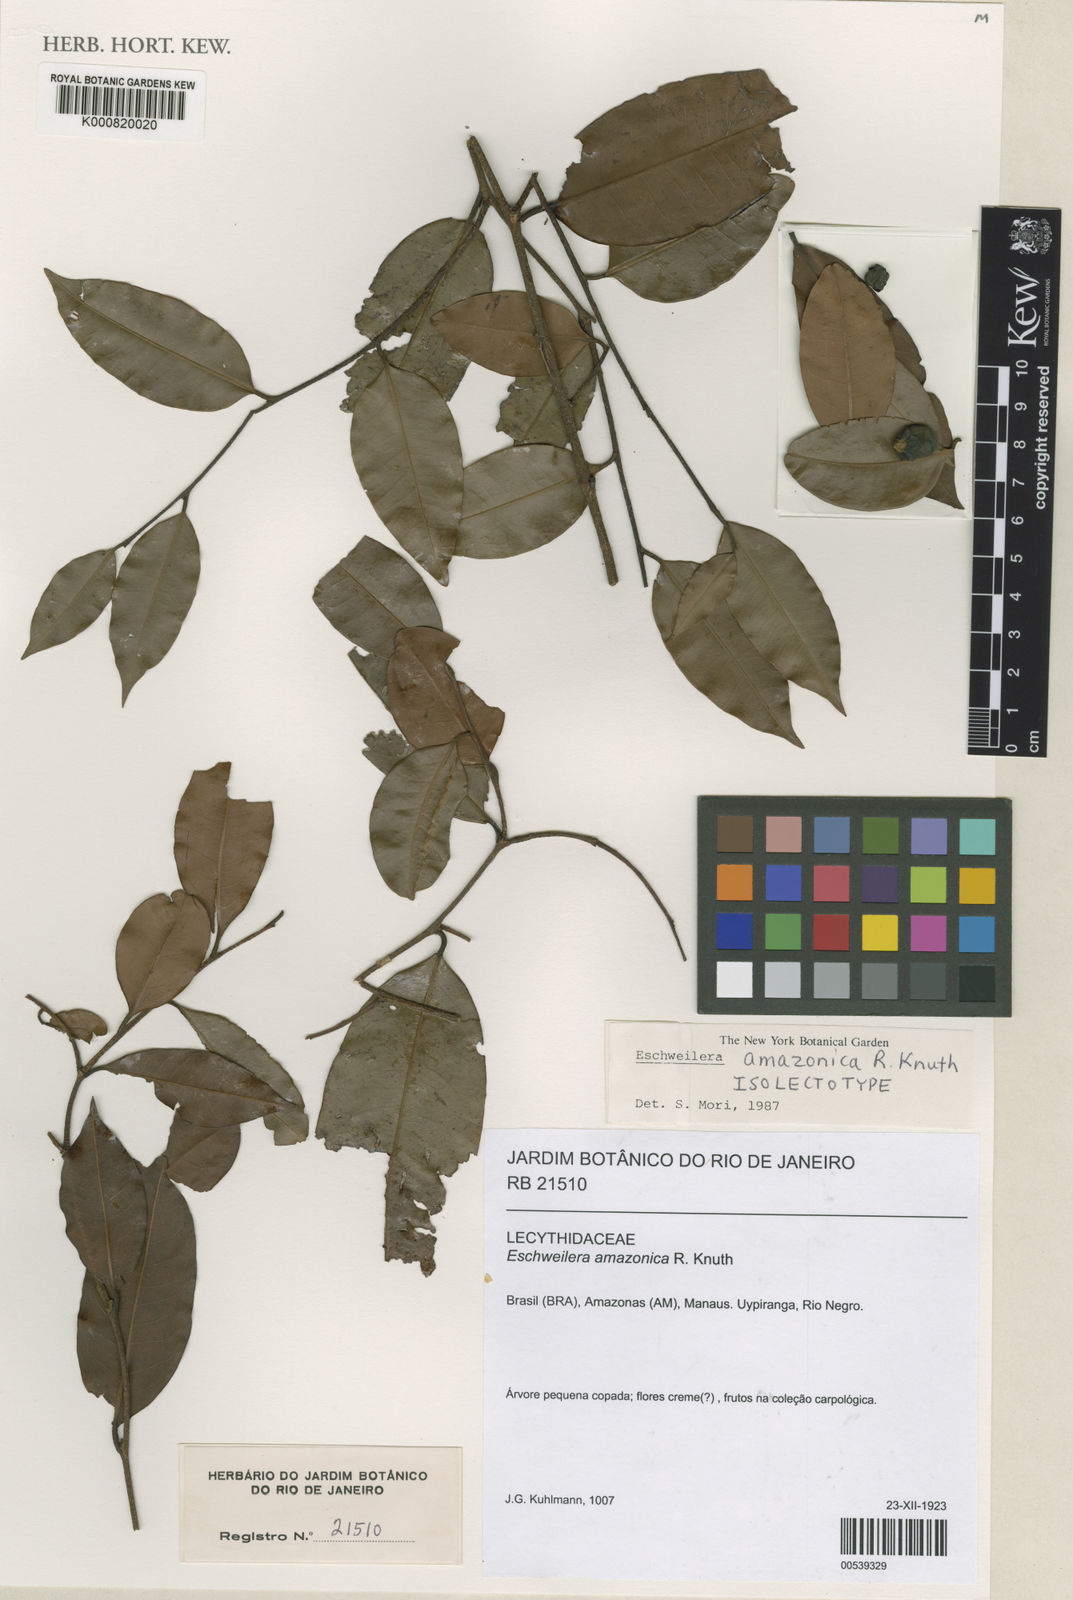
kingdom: Plantae
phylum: Tracheophyta
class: Magnoliopsida
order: Ericales
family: Lecythidaceae
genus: Eschweilera
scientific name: Eschweilera amazonica
